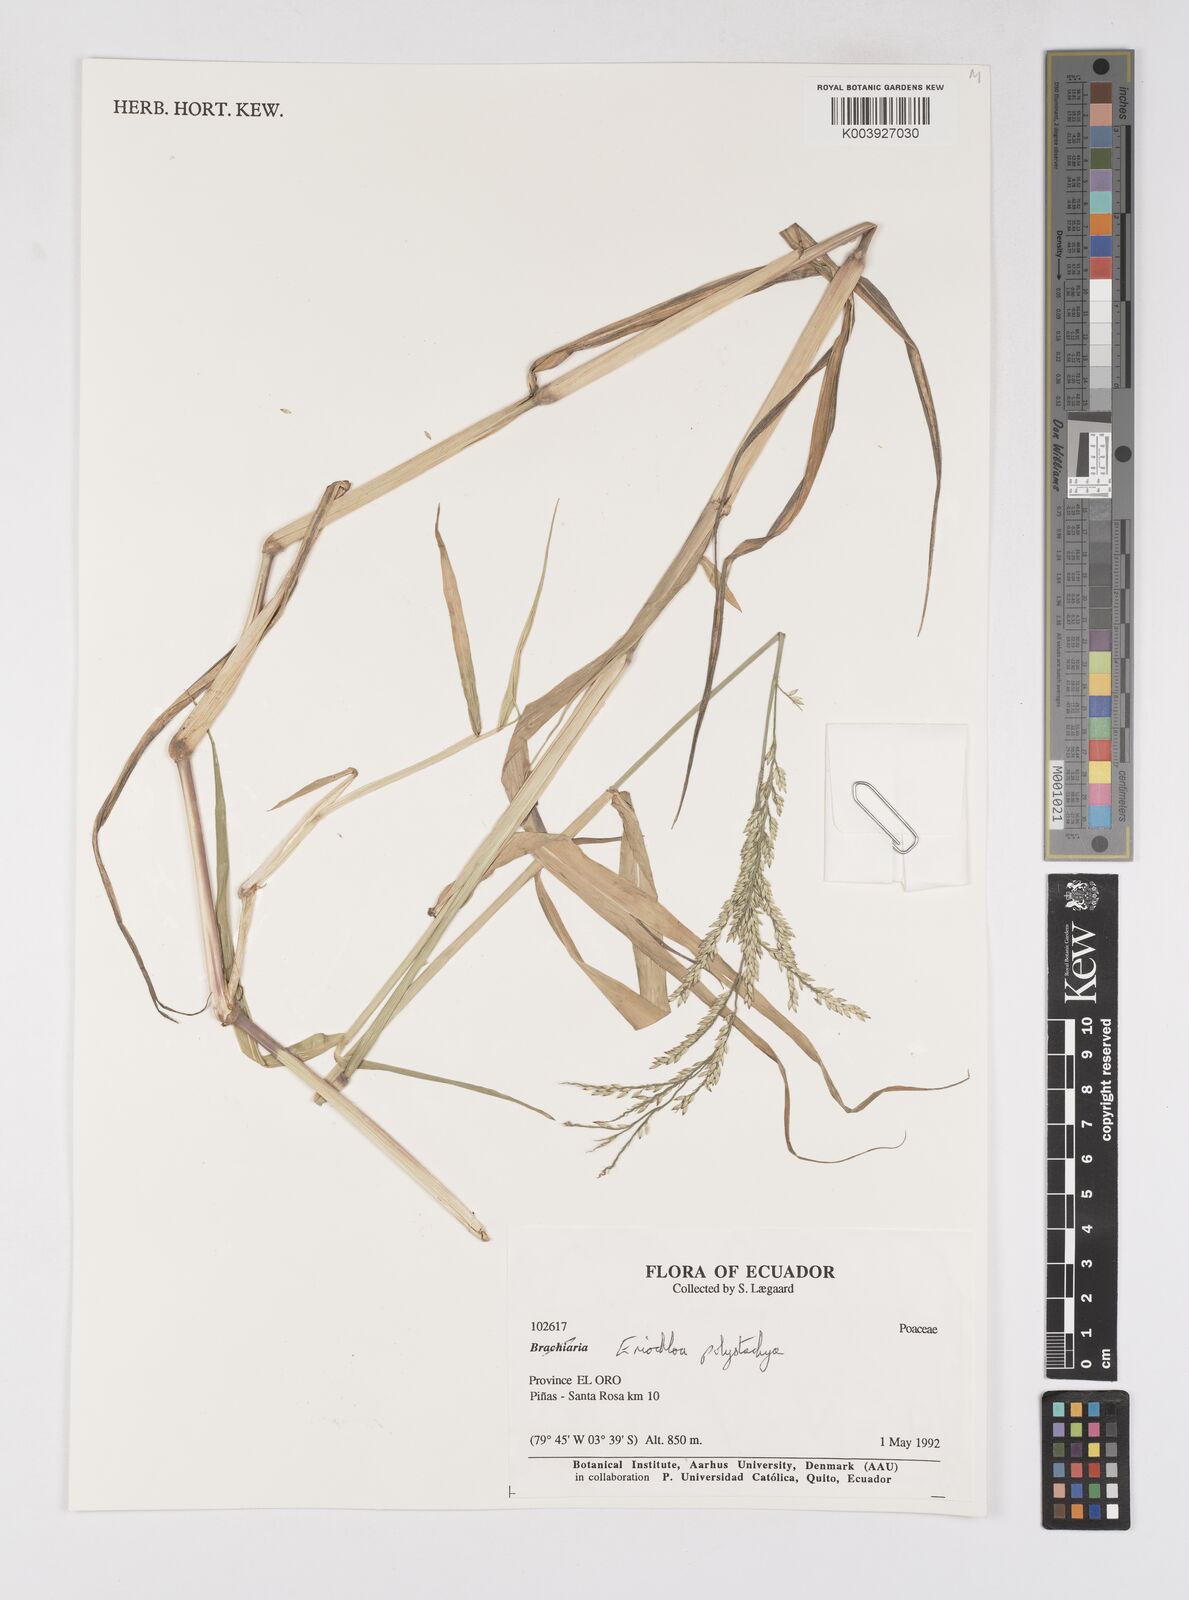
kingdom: Plantae
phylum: Tracheophyta
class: Liliopsida
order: Poales
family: Poaceae
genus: Urochloa
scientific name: Urochloa polystachya
